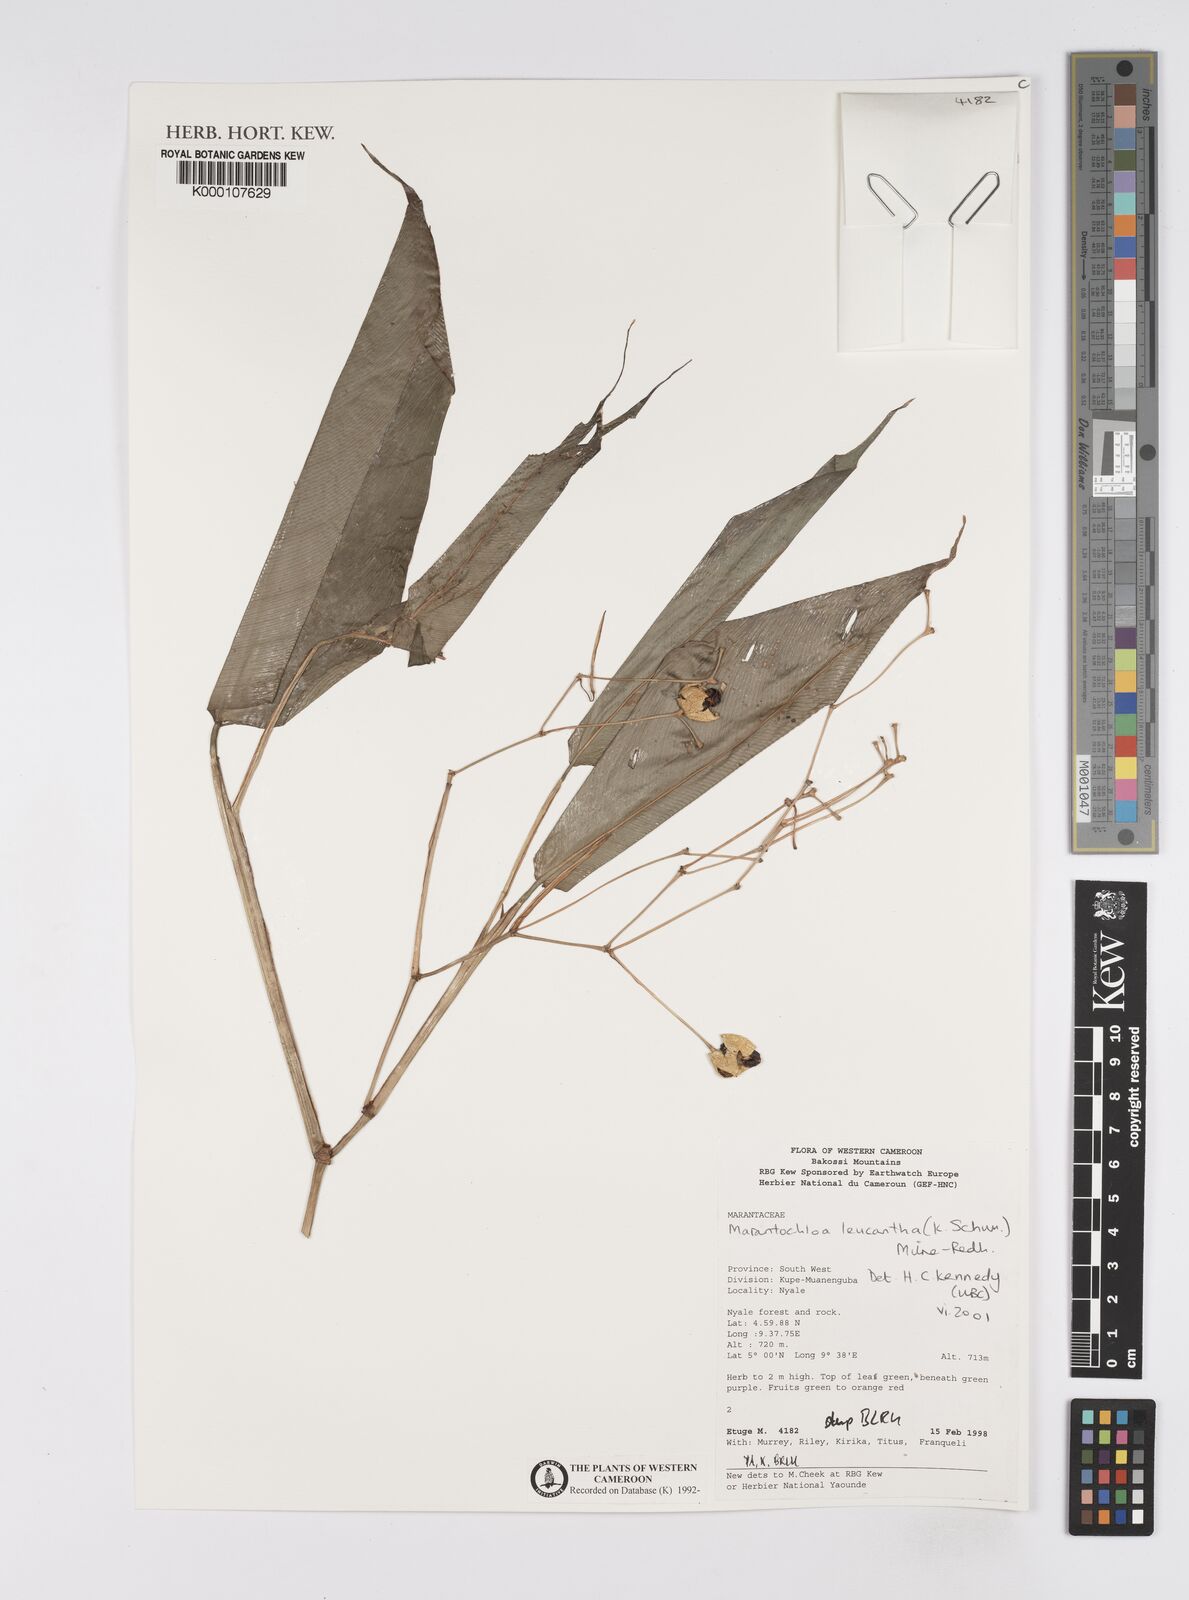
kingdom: Plantae
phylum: Tracheophyta
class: Liliopsida
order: Zingiberales
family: Marantaceae
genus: Marantochloa
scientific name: Marantochloa leucantha
